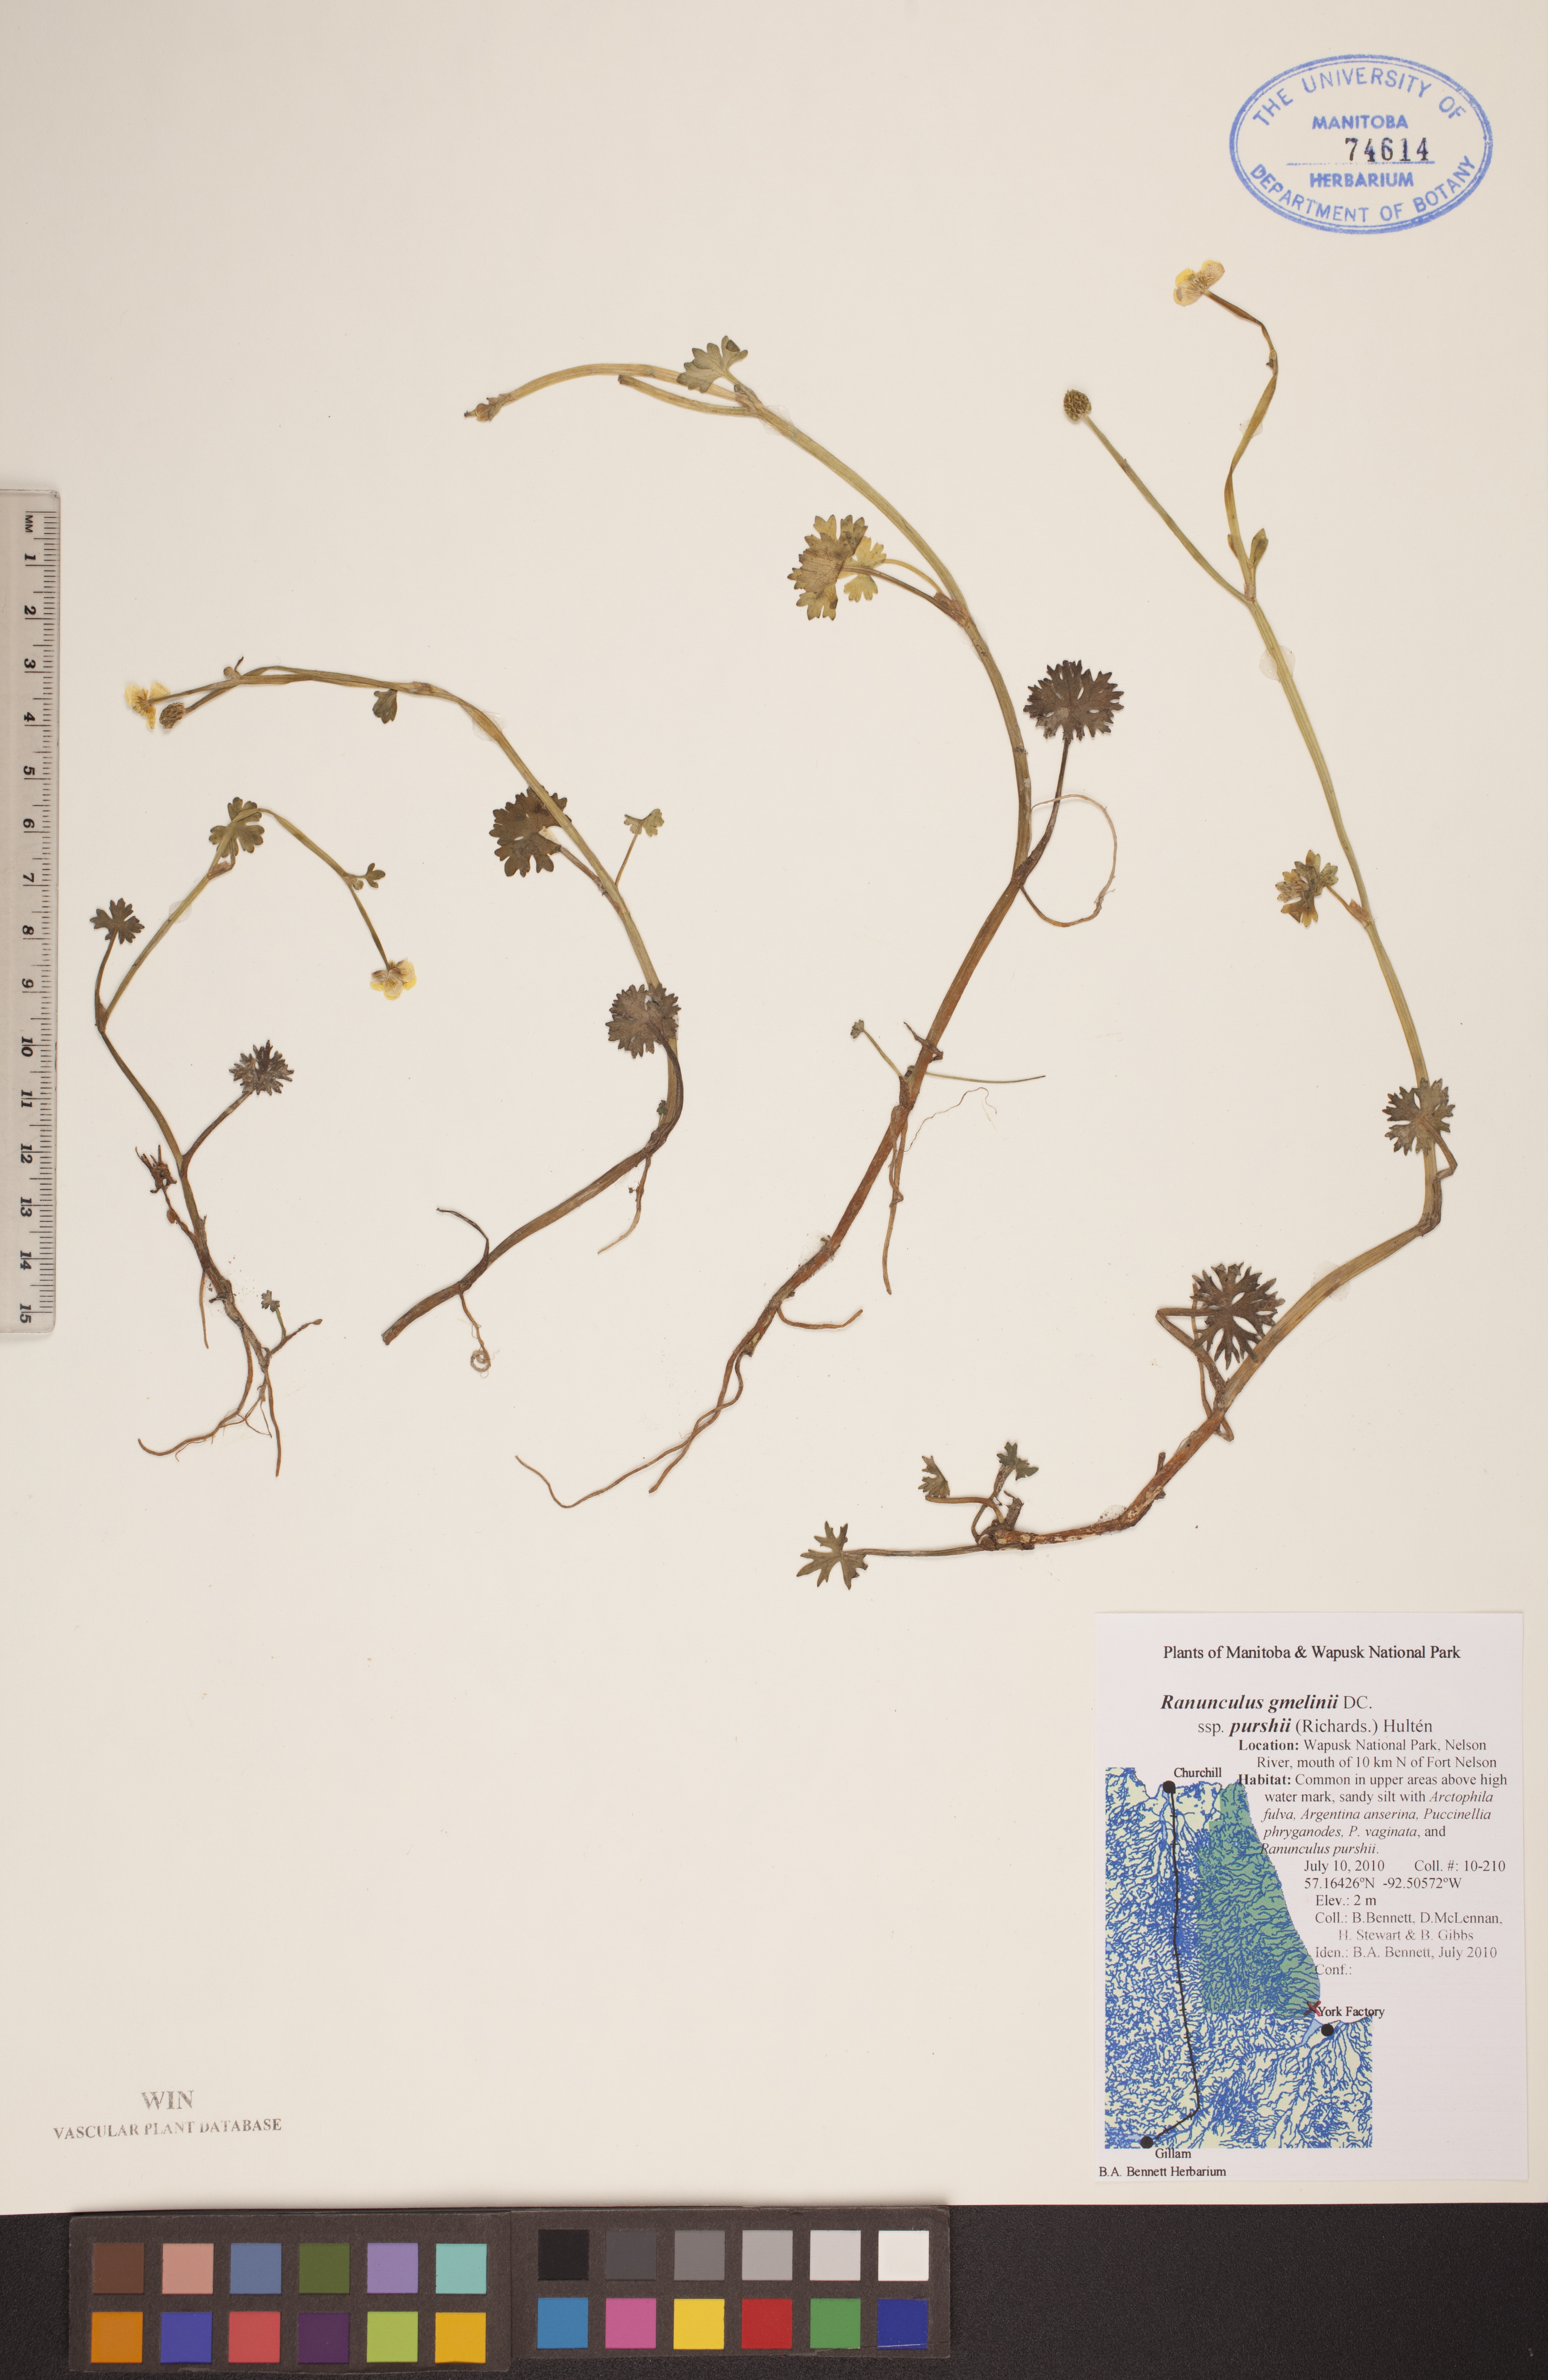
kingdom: Plantae
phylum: Tracheophyta
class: Magnoliopsida
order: Ranunculales
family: Ranunculaceae
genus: Ranunculus
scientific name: Ranunculus gmelinii
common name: Gmelin's buttercup
